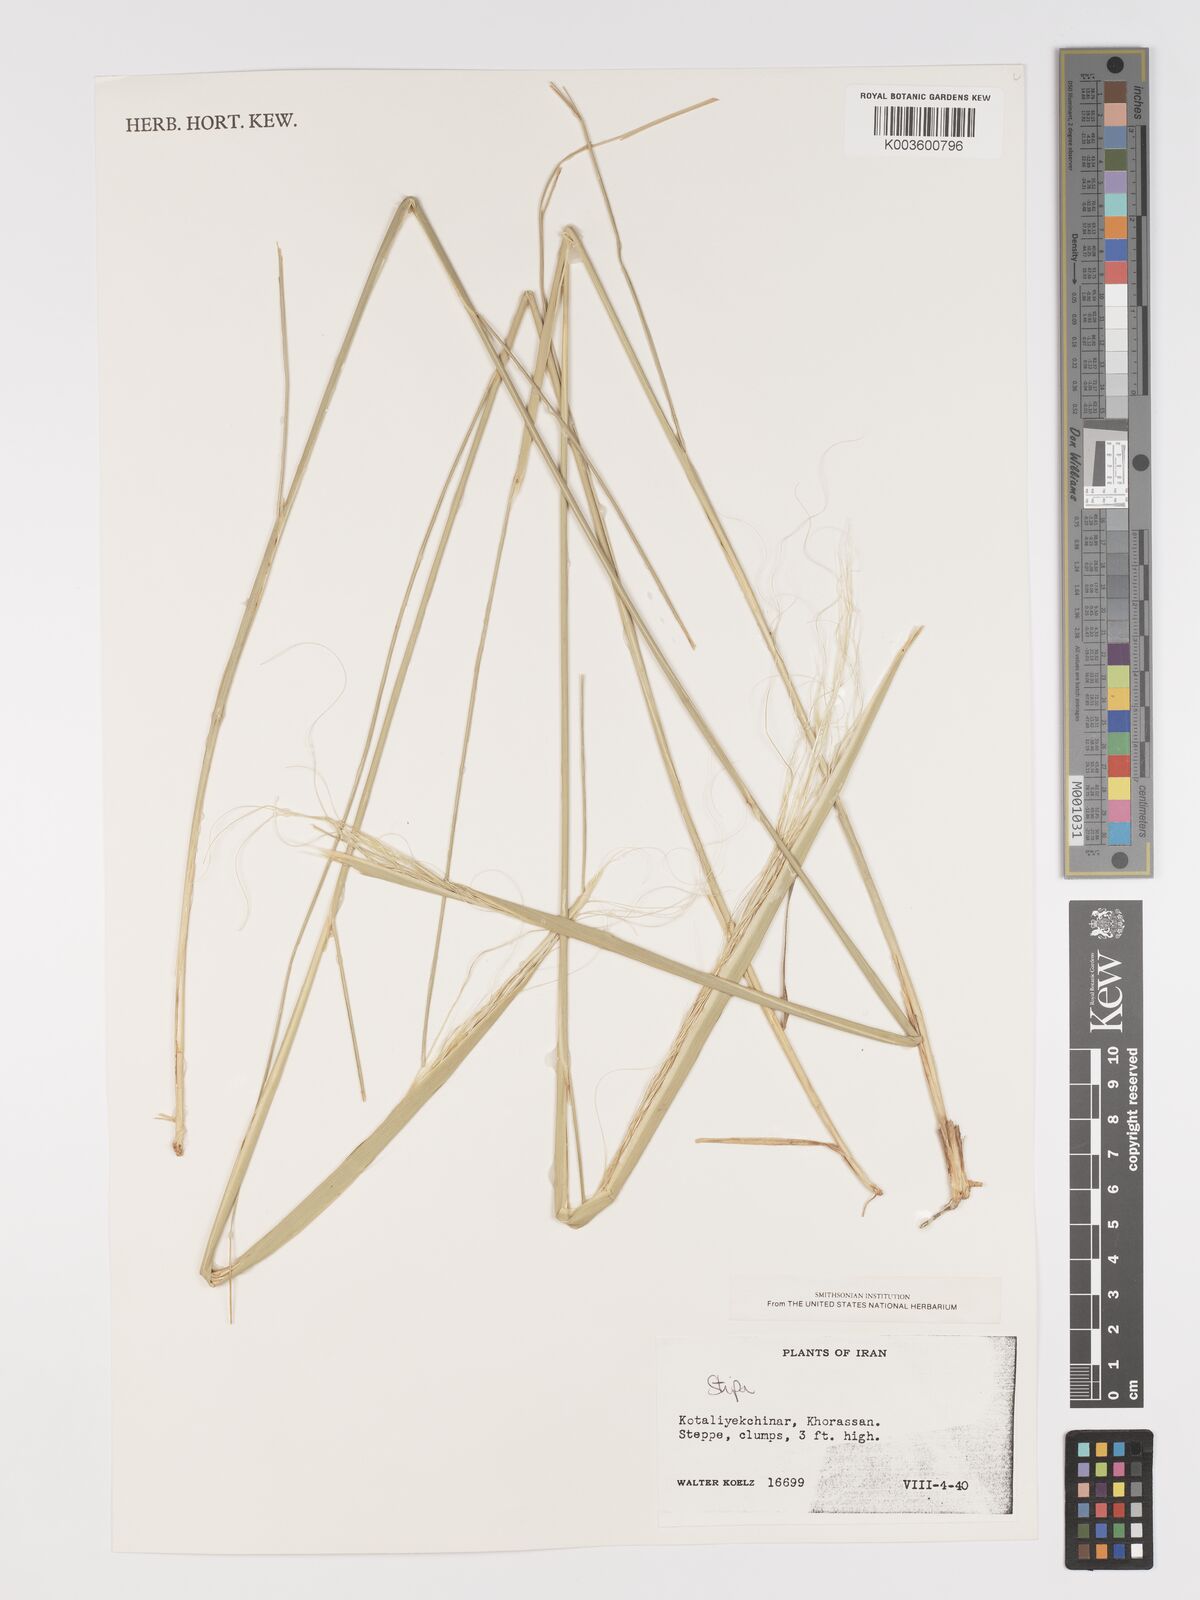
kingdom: Plantae
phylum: Tracheophyta
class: Liliopsida
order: Poales
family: Poaceae
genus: Stipa
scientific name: Stipa
